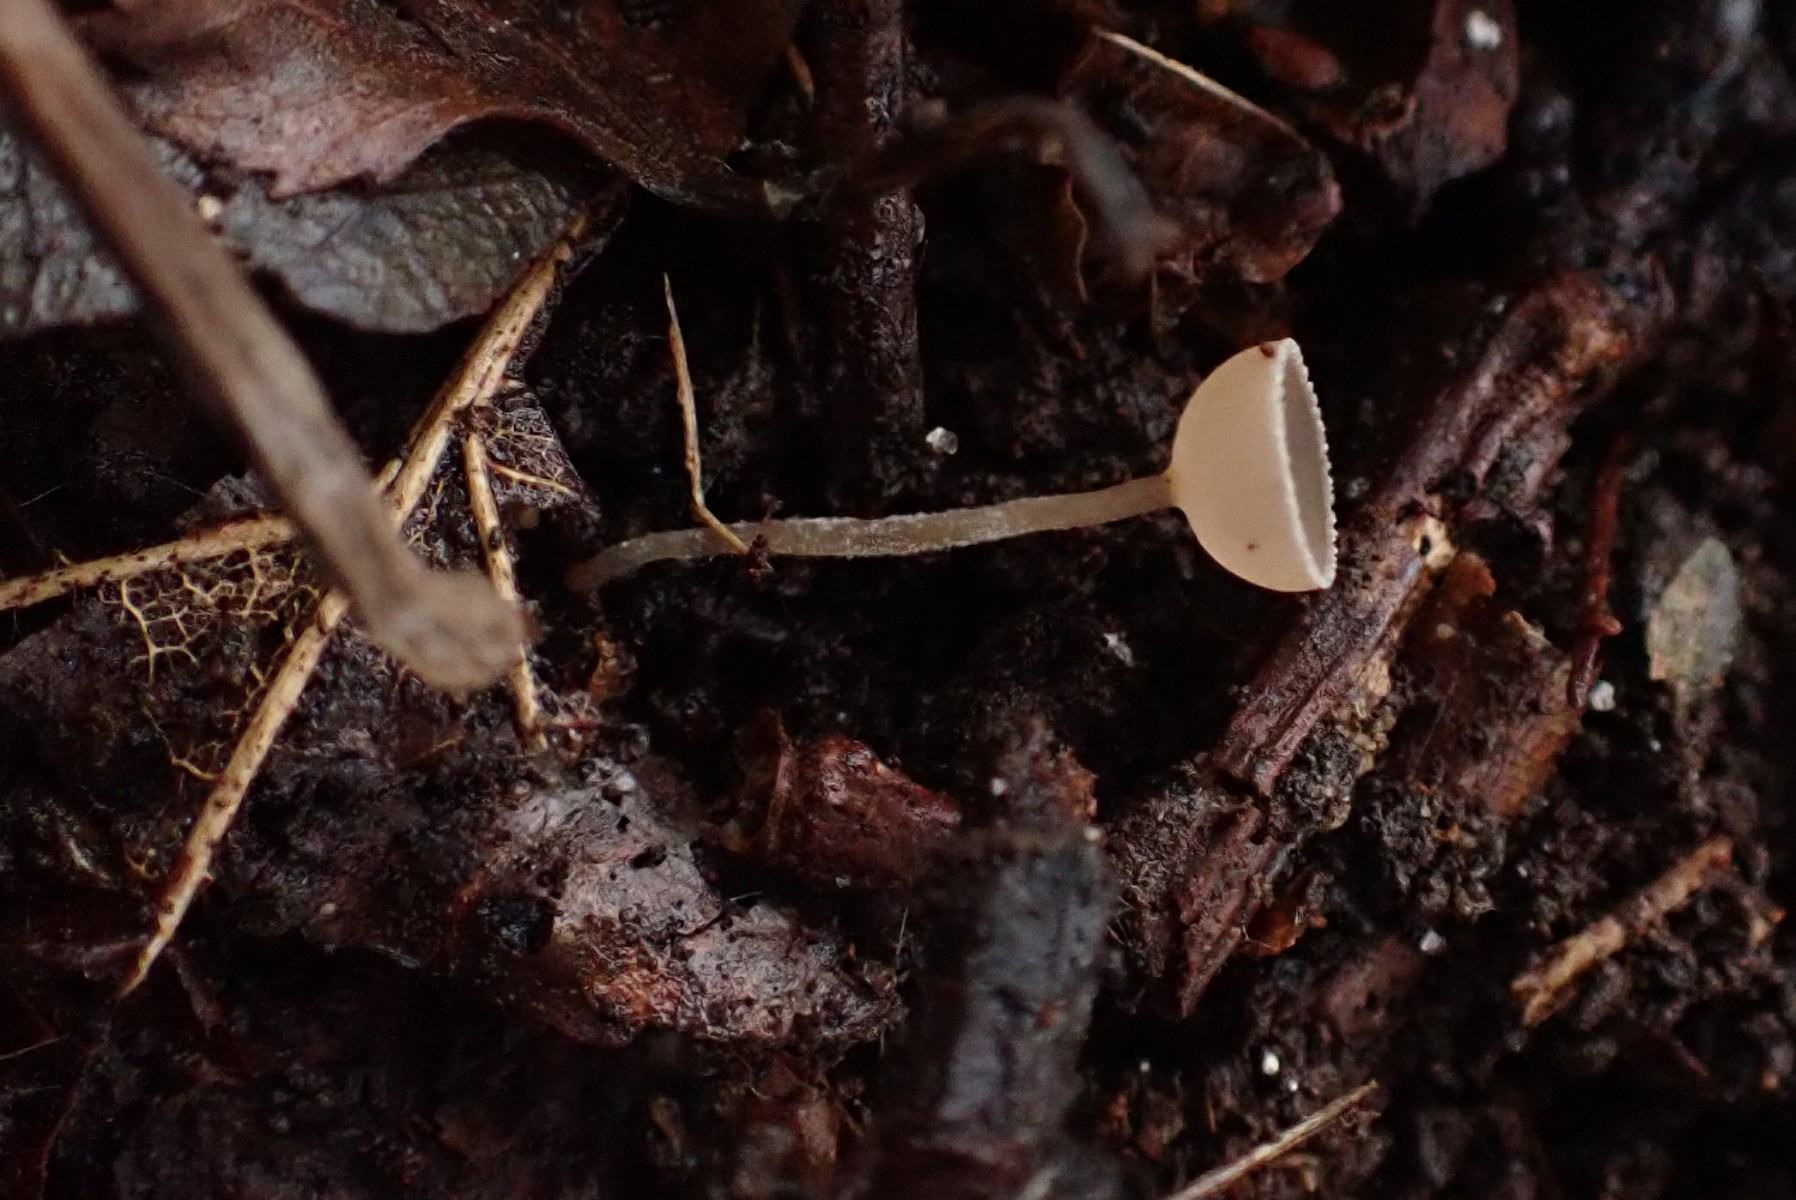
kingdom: Fungi
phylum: Ascomycota
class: Leotiomycetes
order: Helotiales
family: Sclerotiniaceae
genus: Ciboria
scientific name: Ciboria amentacea
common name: ellerakle-knoldskive
